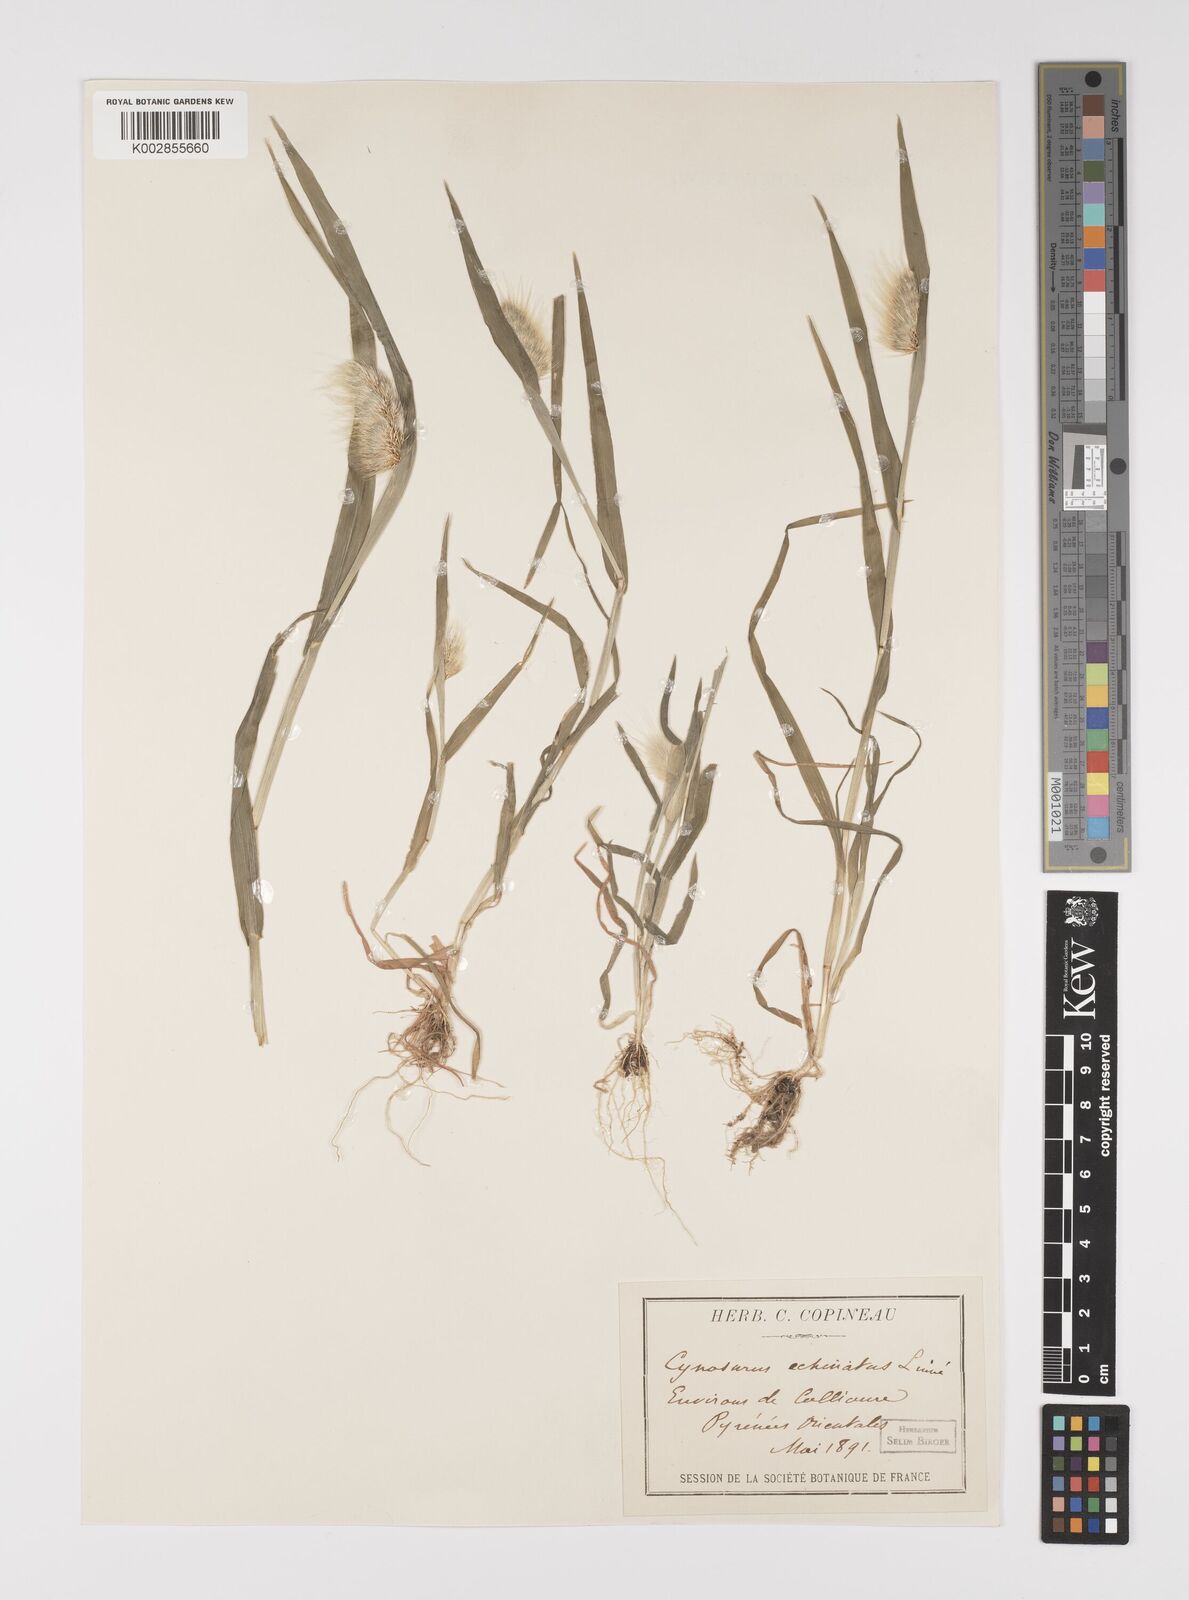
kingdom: Plantae
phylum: Tracheophyta
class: Liliopsida
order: Poales
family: Poaceae
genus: Cynosurus
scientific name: Cynosurus echinatus
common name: Rough dog's-tail
